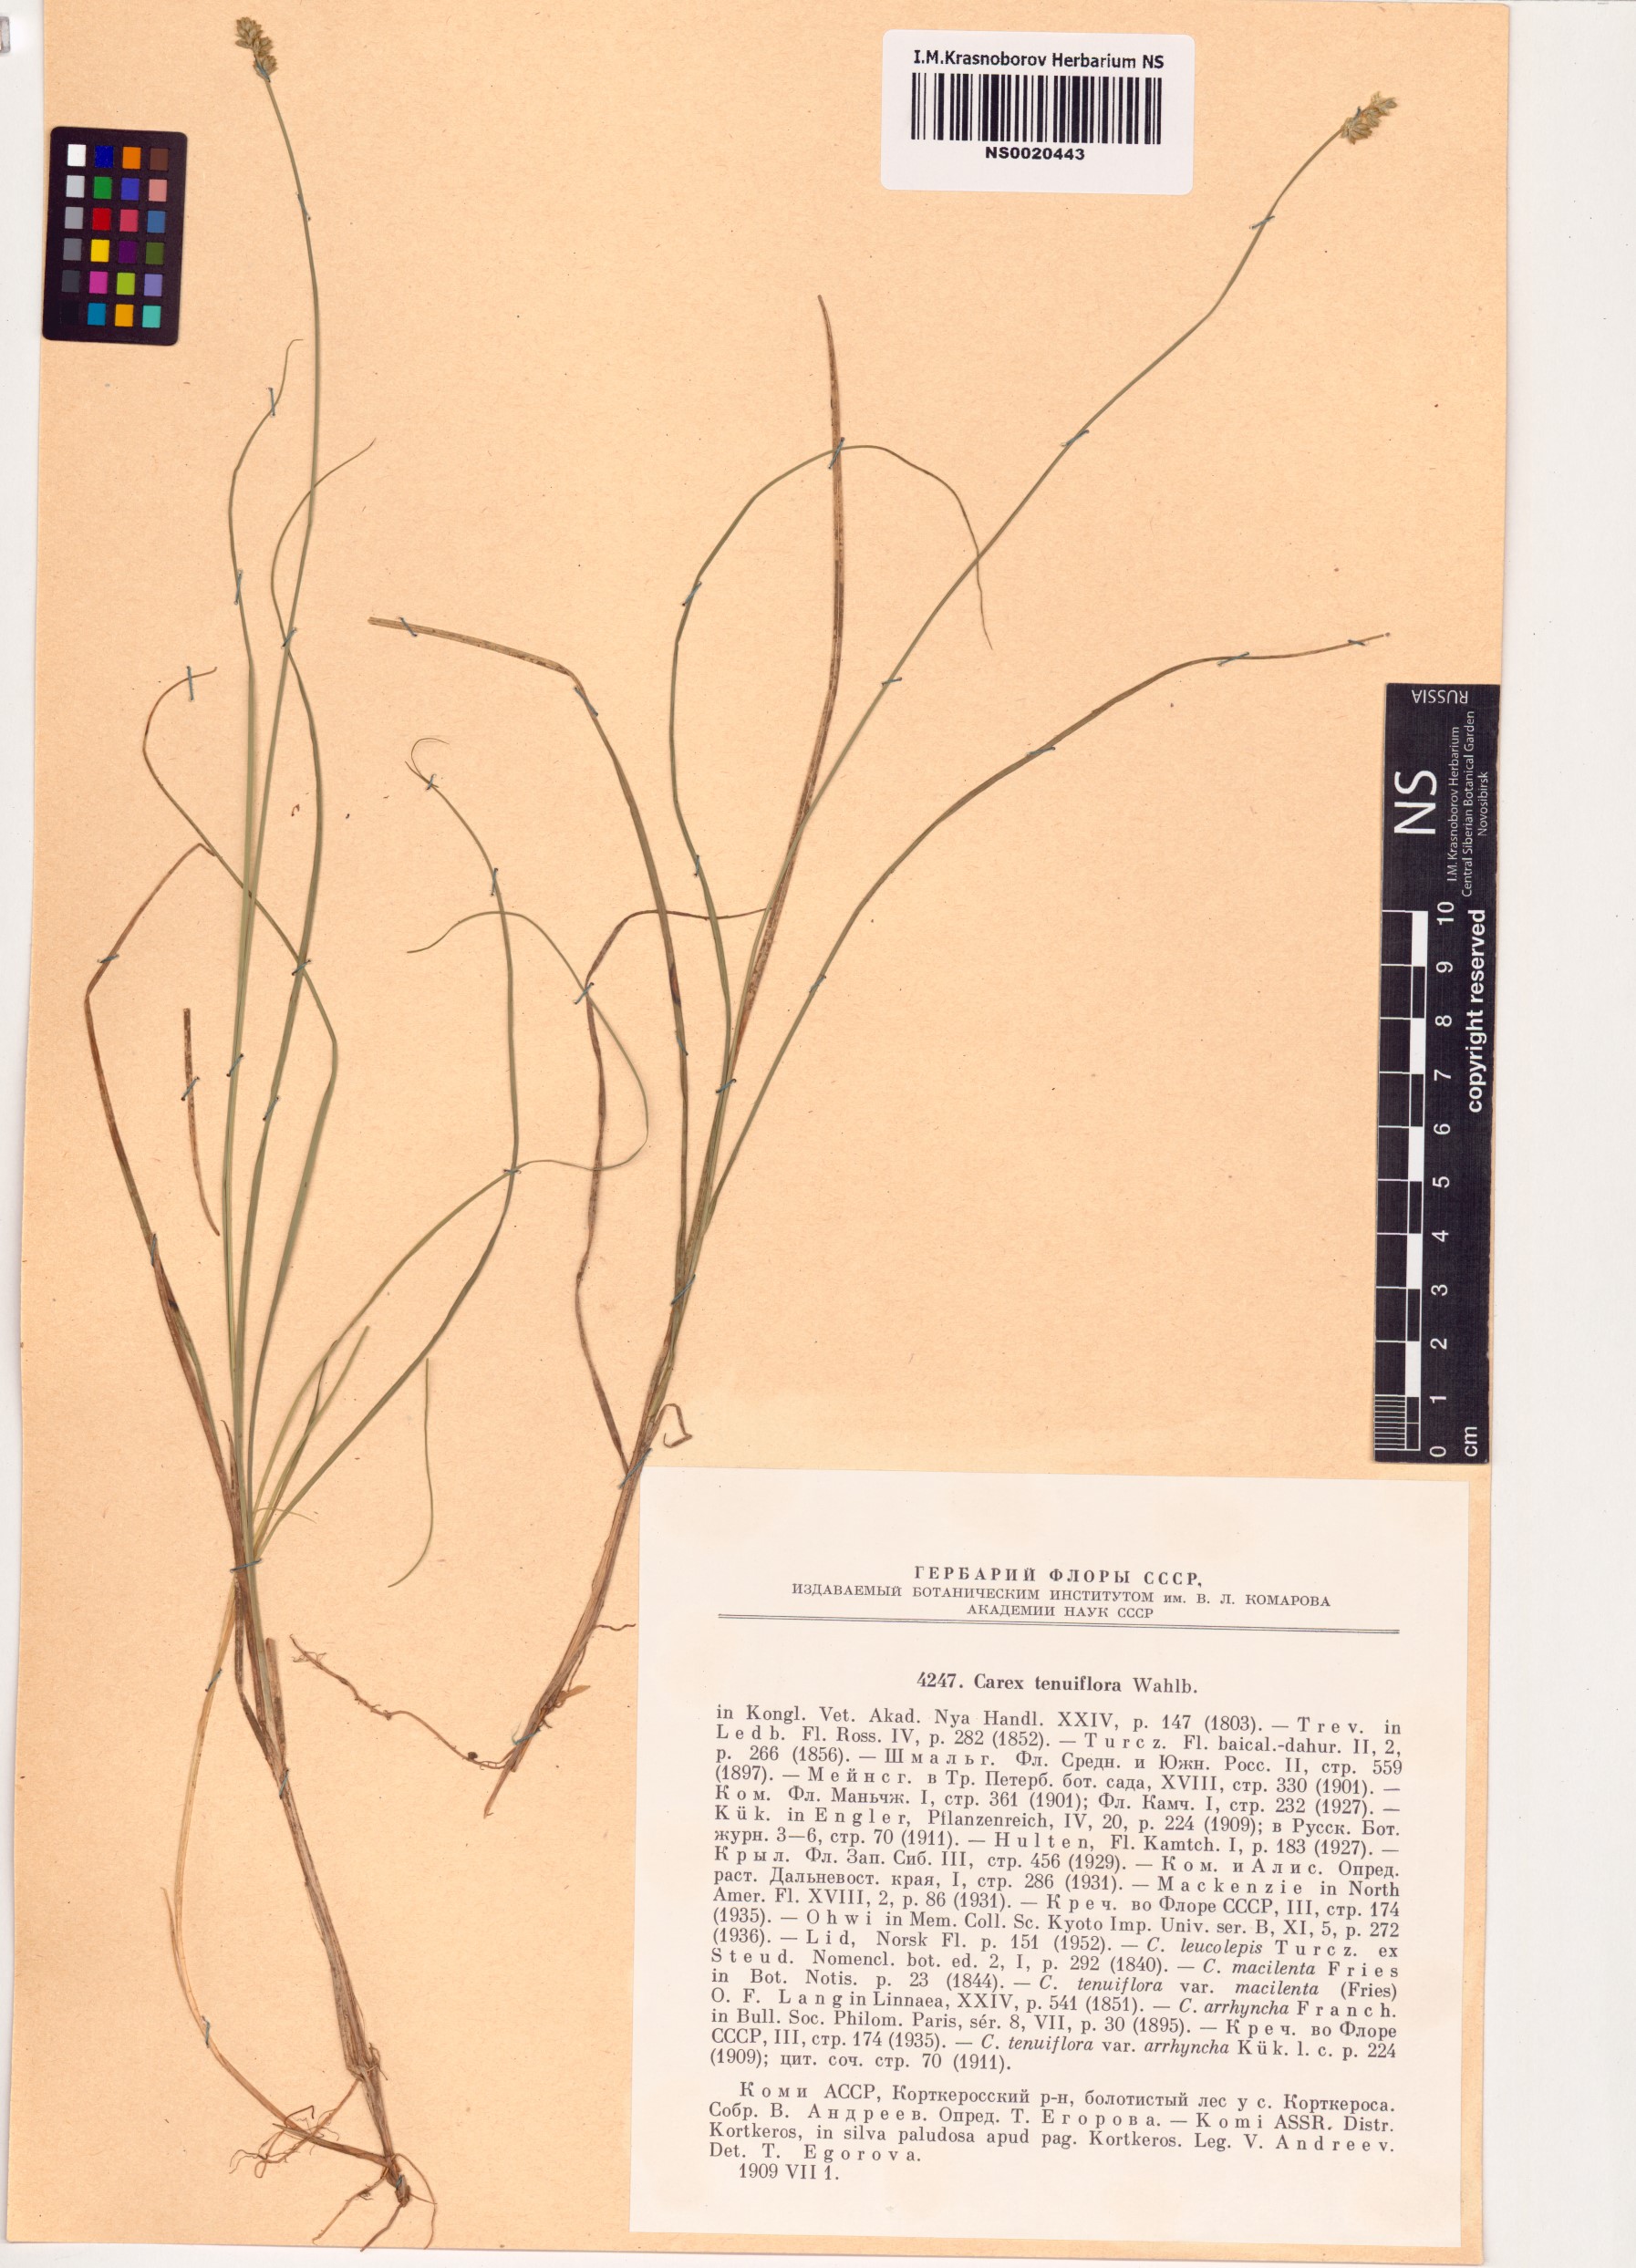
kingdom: Plantae
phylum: Tracheophyta
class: Liliopsida
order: Poales
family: Cyperaceae
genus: Carex
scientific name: Carex halleriana
